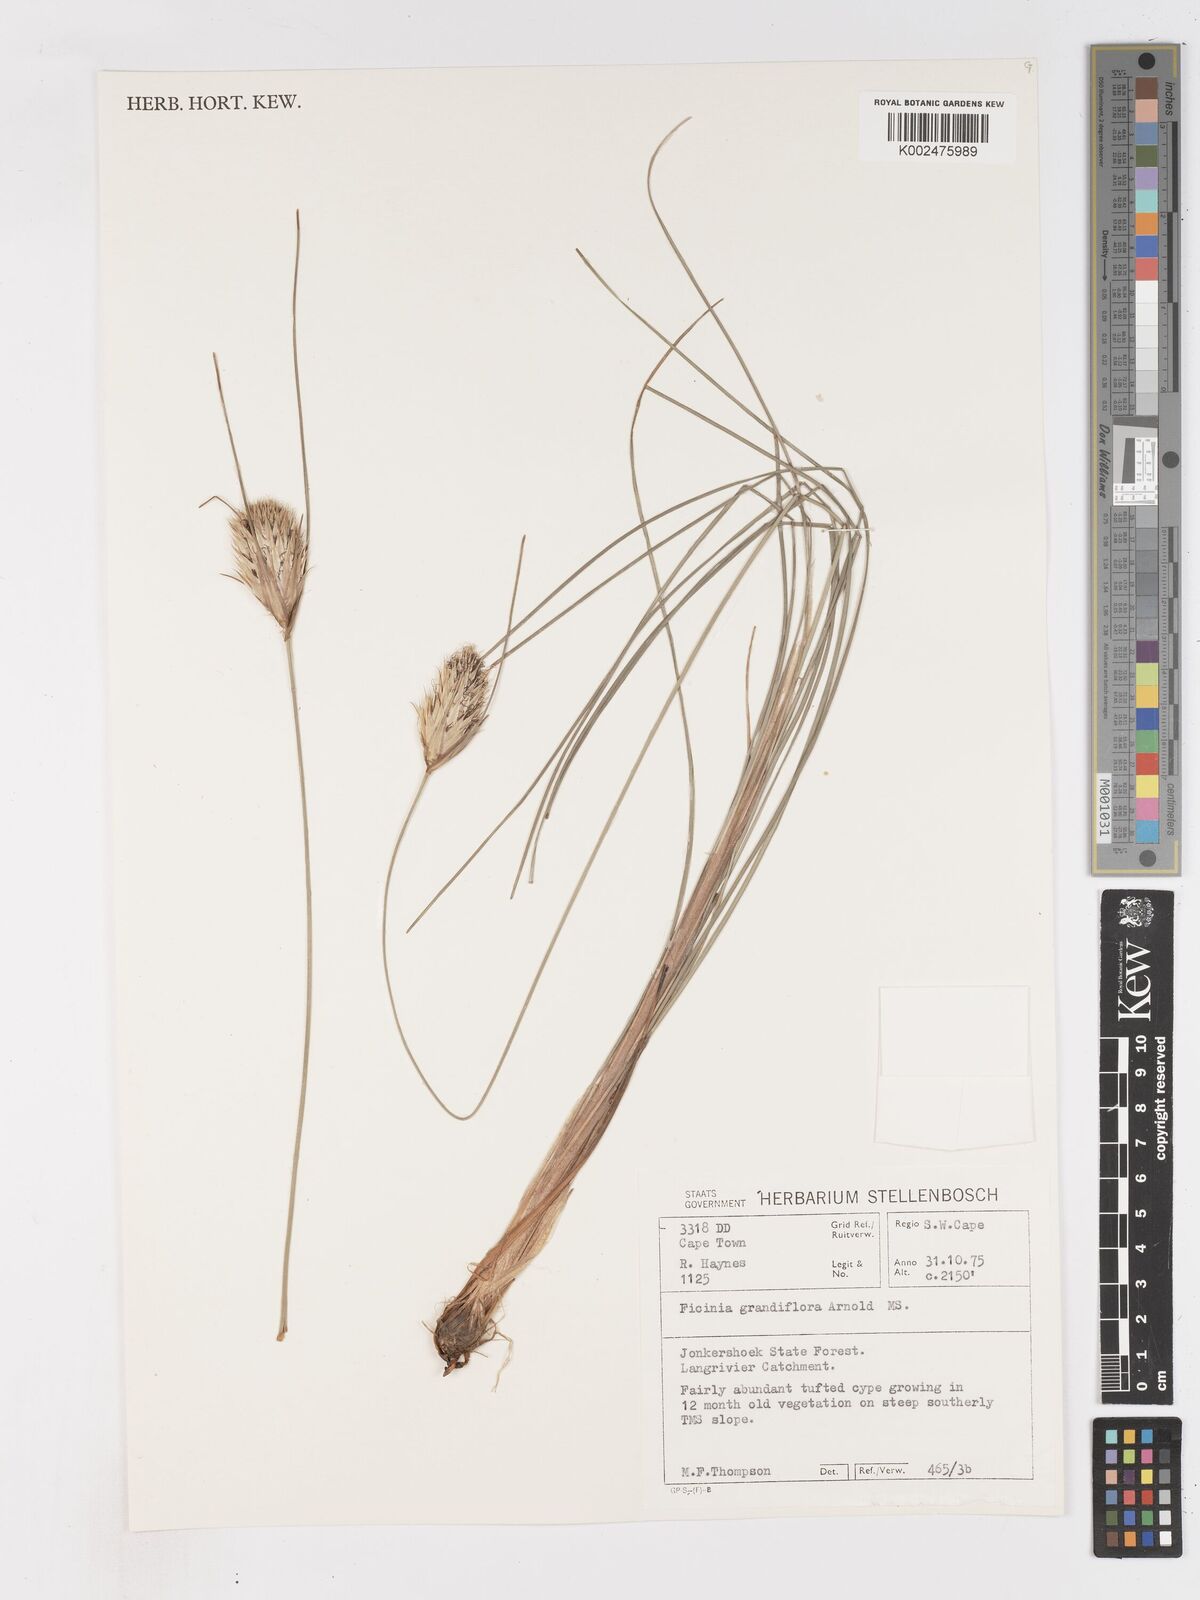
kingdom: Plantae
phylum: Tracheophyta
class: Liliopsida
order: Poales
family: Cyperaceae
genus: Ficinia
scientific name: Ficinia grandiflora
